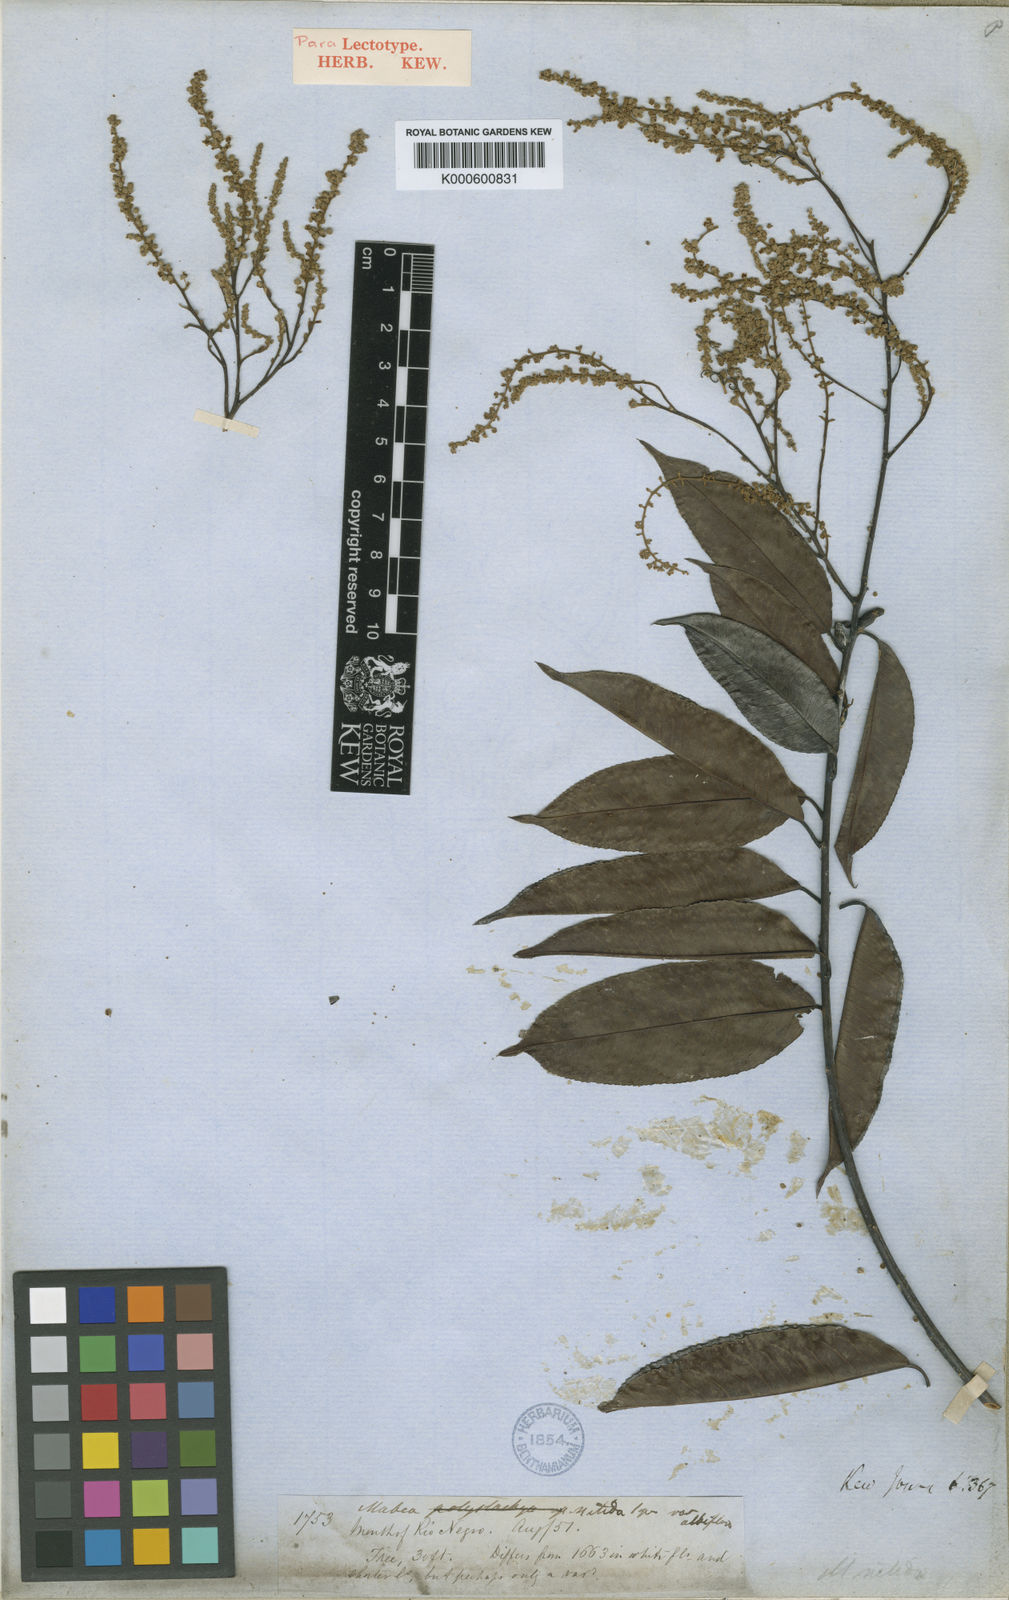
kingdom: Plantae
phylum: Tracheophyta
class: Magnoliopsida
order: Malpighiales
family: Euphorbiaceae
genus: Mabea
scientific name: Mabea nitida
